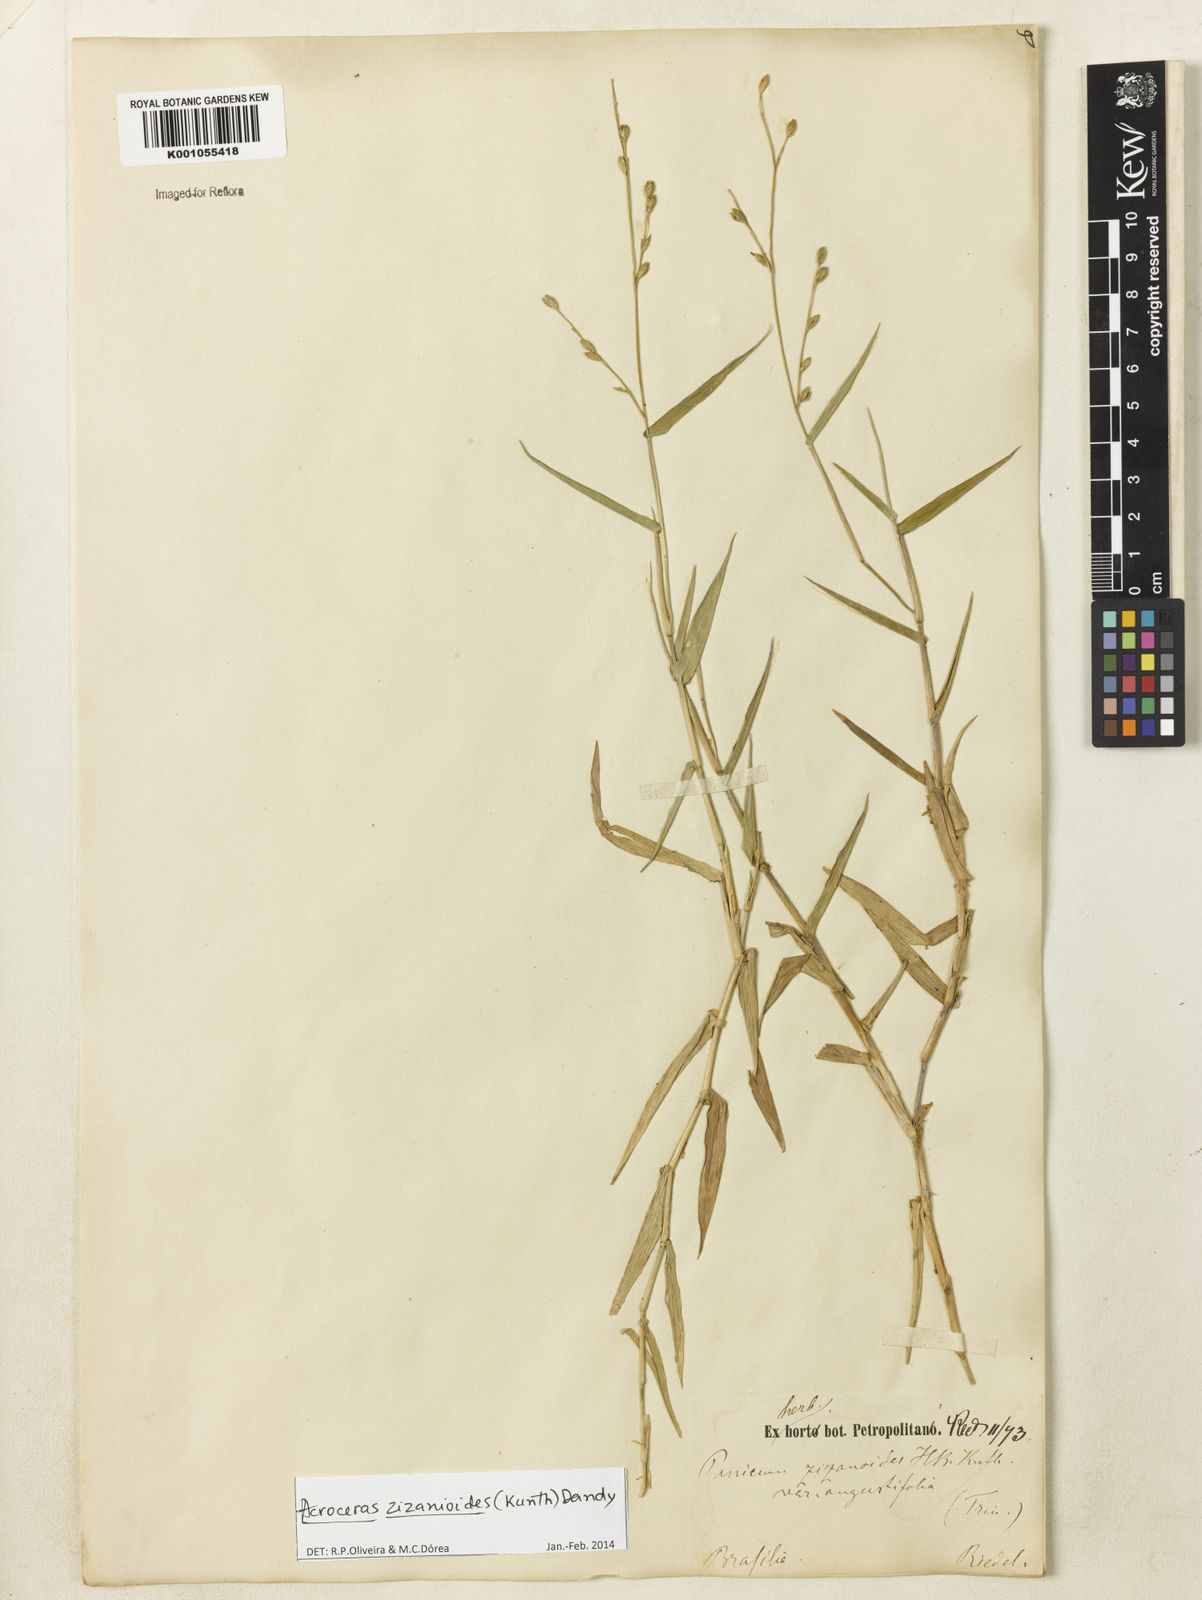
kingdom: Plantae
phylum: Tracheophyta
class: Liliopsida
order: Poales
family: Poaceae
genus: Acroceras
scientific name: Acroceras zizanioides
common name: Oat grass
